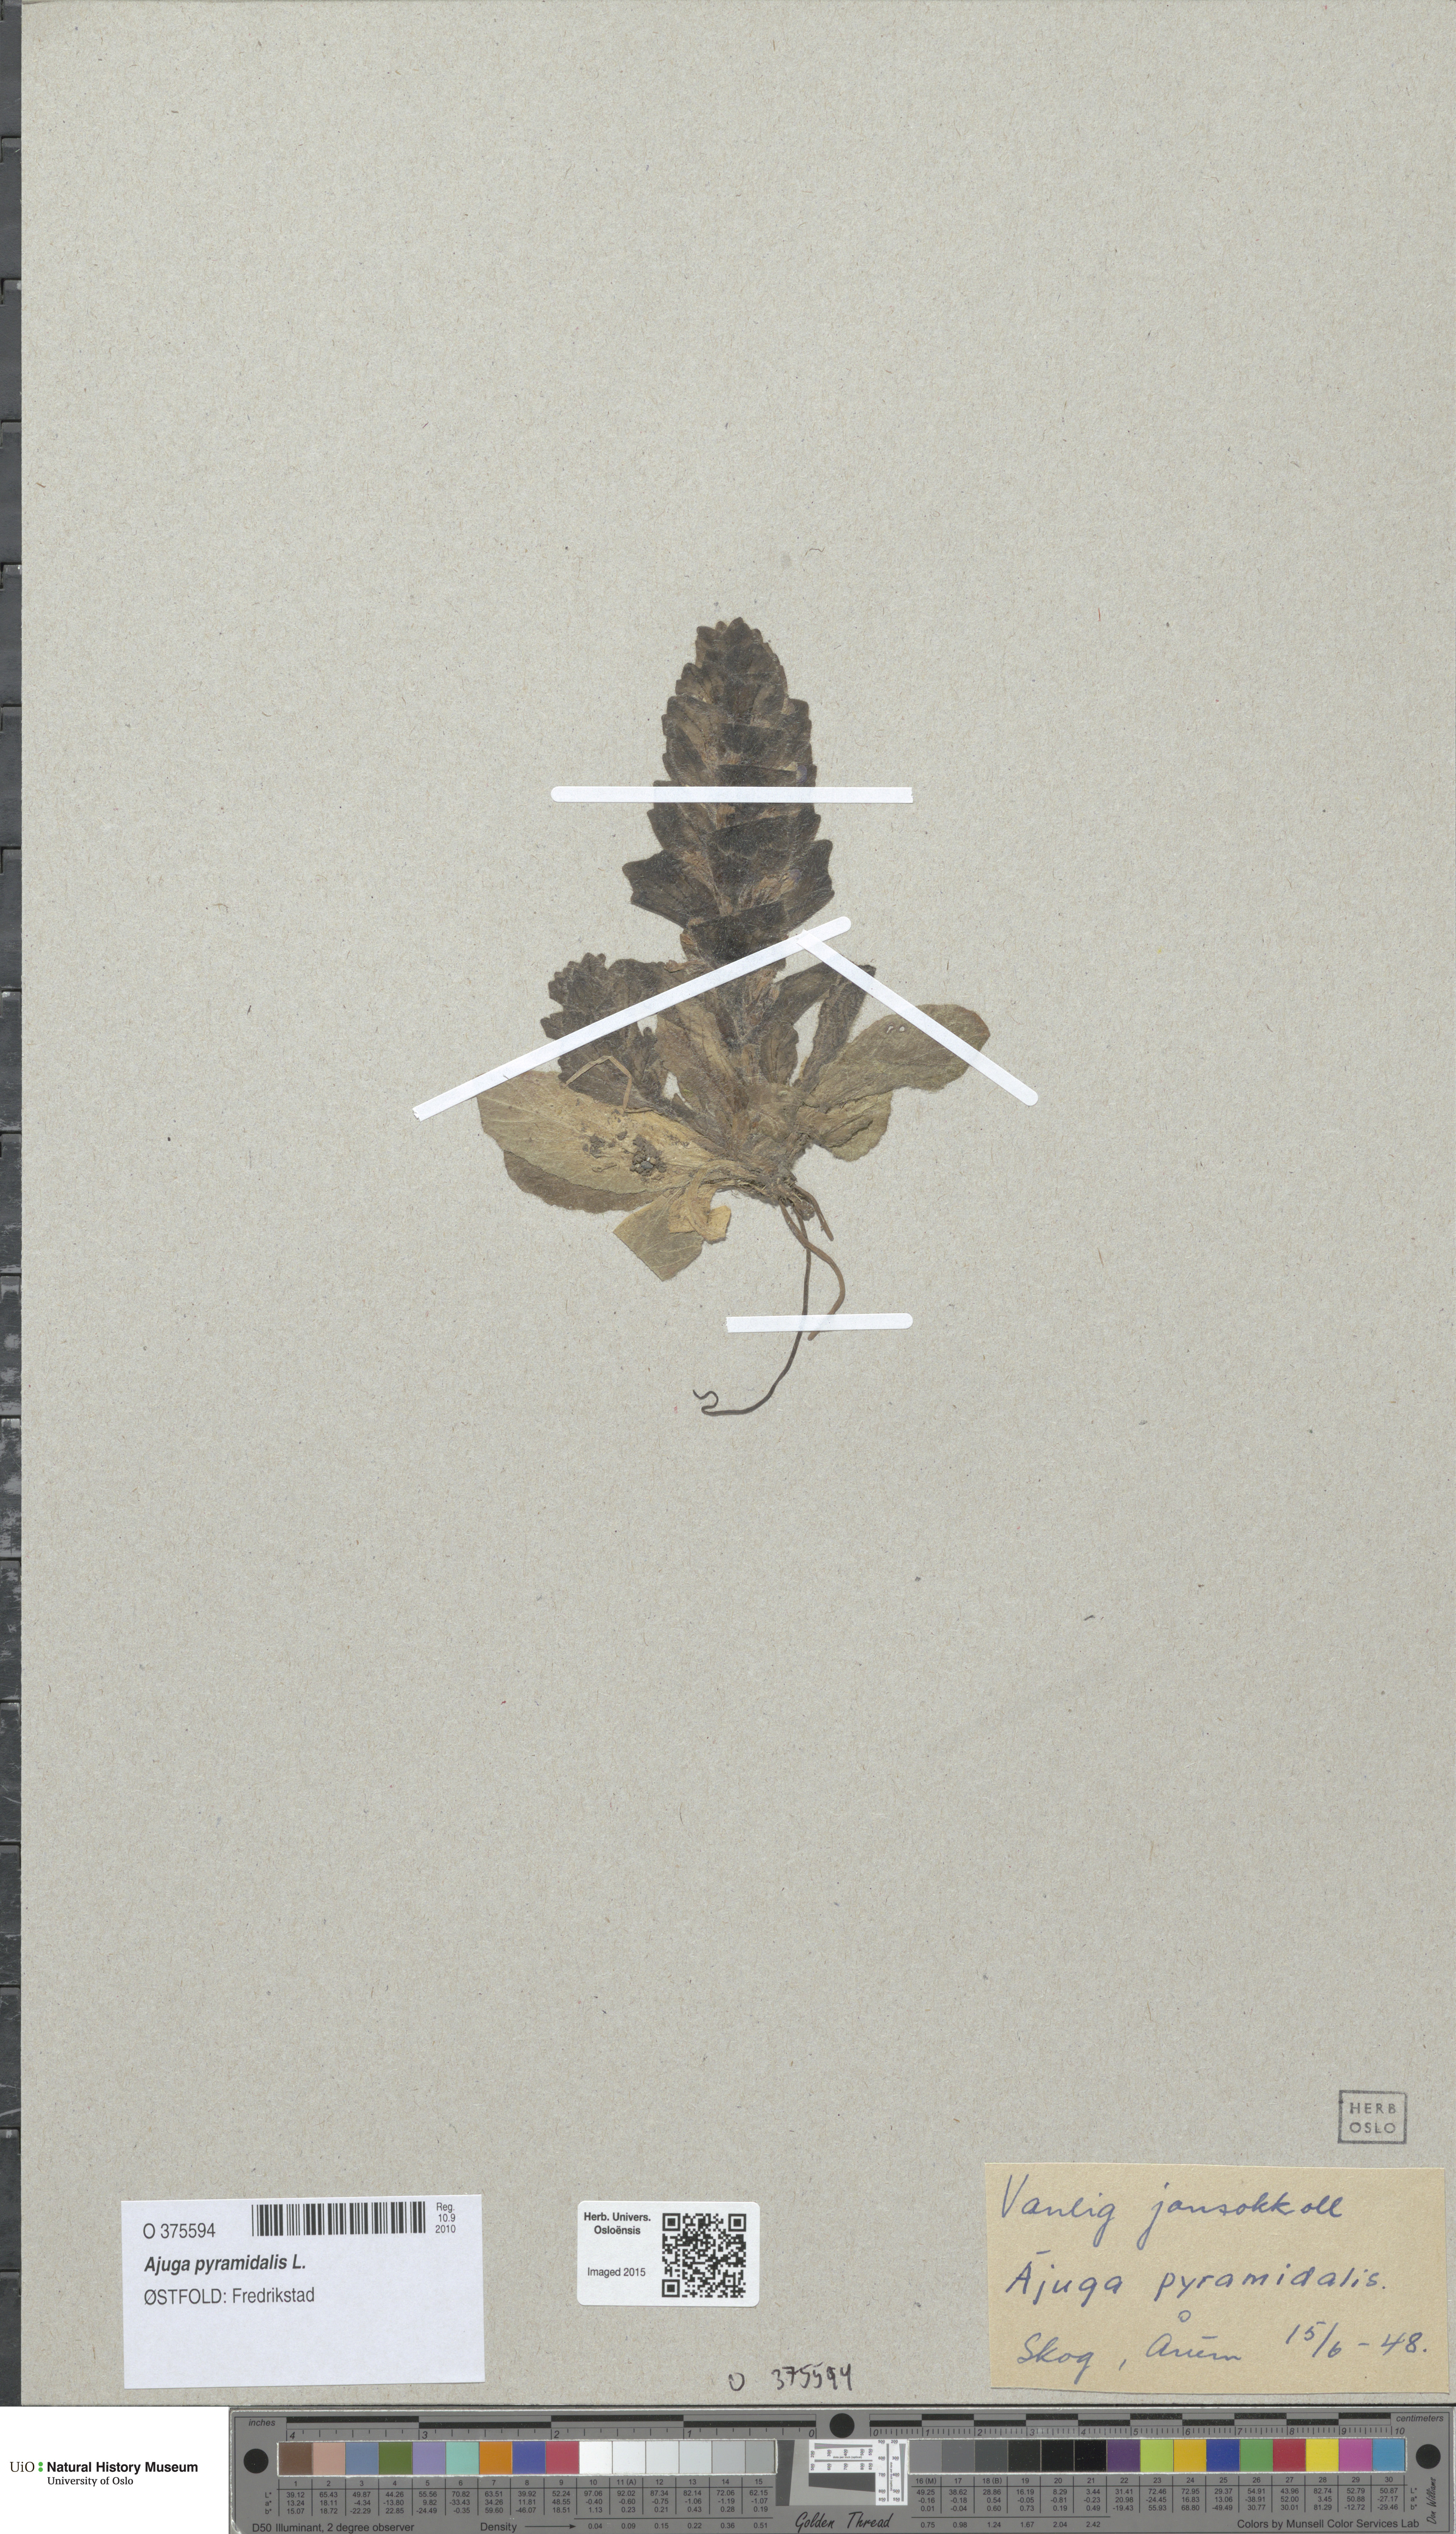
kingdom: Plantae
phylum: Tracheophyta
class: Magnoliopsida
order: Lamiales
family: Lamiaceae
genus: Ajuga
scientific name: Ajuga pyramidalis
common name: Pyramid bugle
